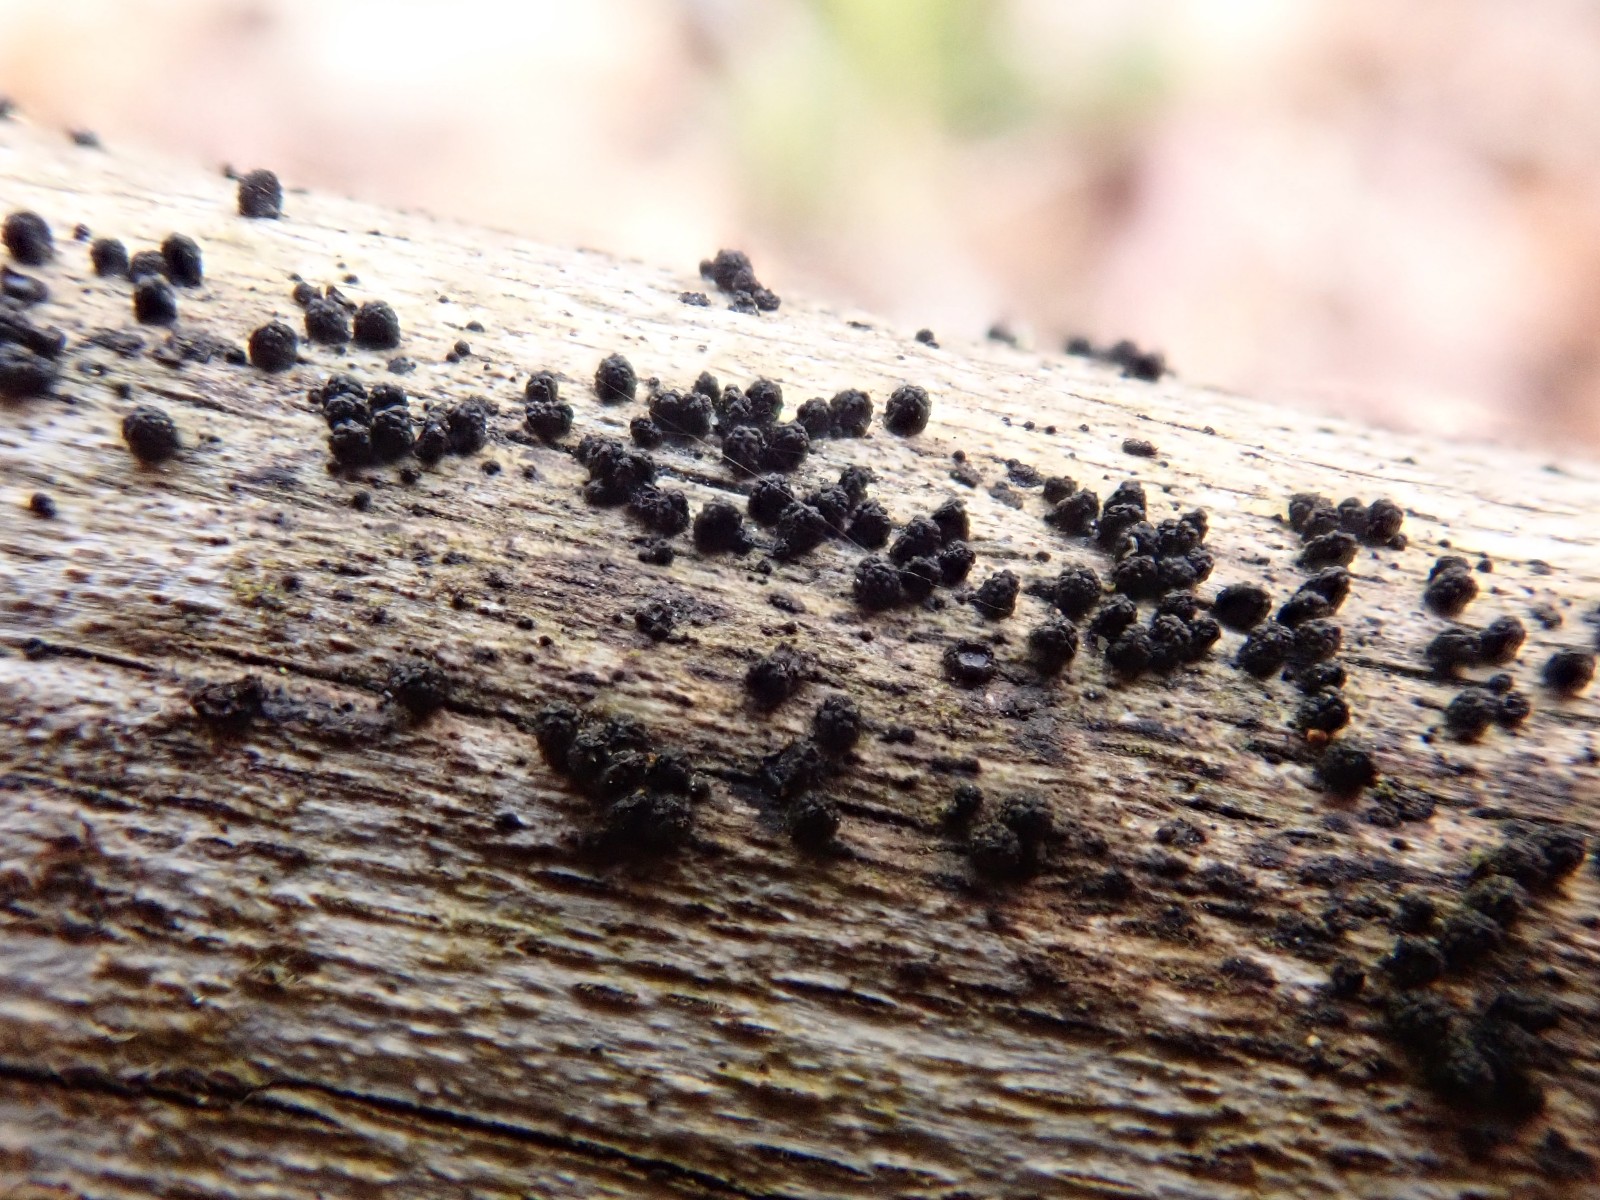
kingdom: Fungi
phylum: Ascomycota
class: Sordariomycetes
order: Coronophorales
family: Bertiaceae
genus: Bertia
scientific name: Bertia moriformis
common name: almindelig morbærkerne
